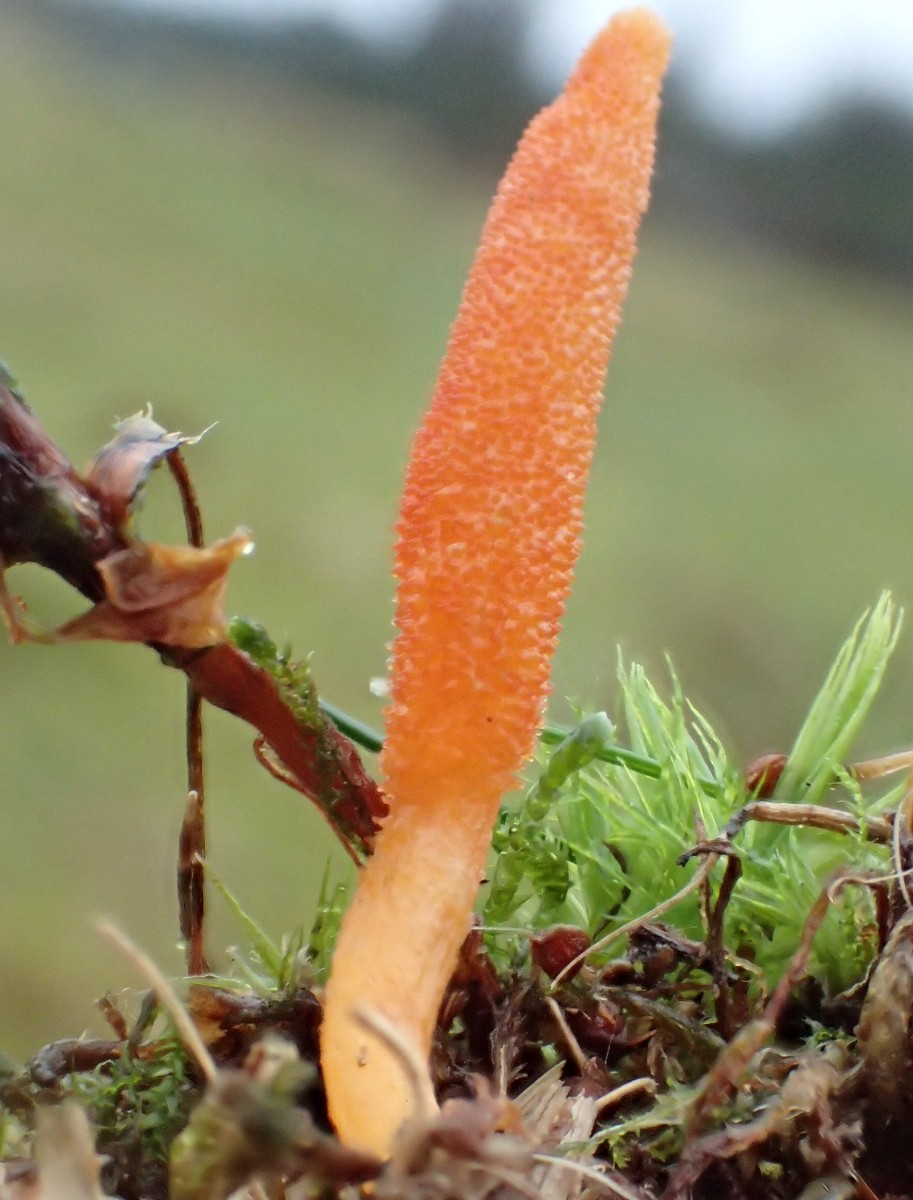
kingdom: Fungi
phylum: Ascomycota
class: Sordariomycetes
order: Hypocreales
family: Cordycipitaceae
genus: Cordyceps
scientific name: Cordyceps militaris
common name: puppe-snyltekølle
